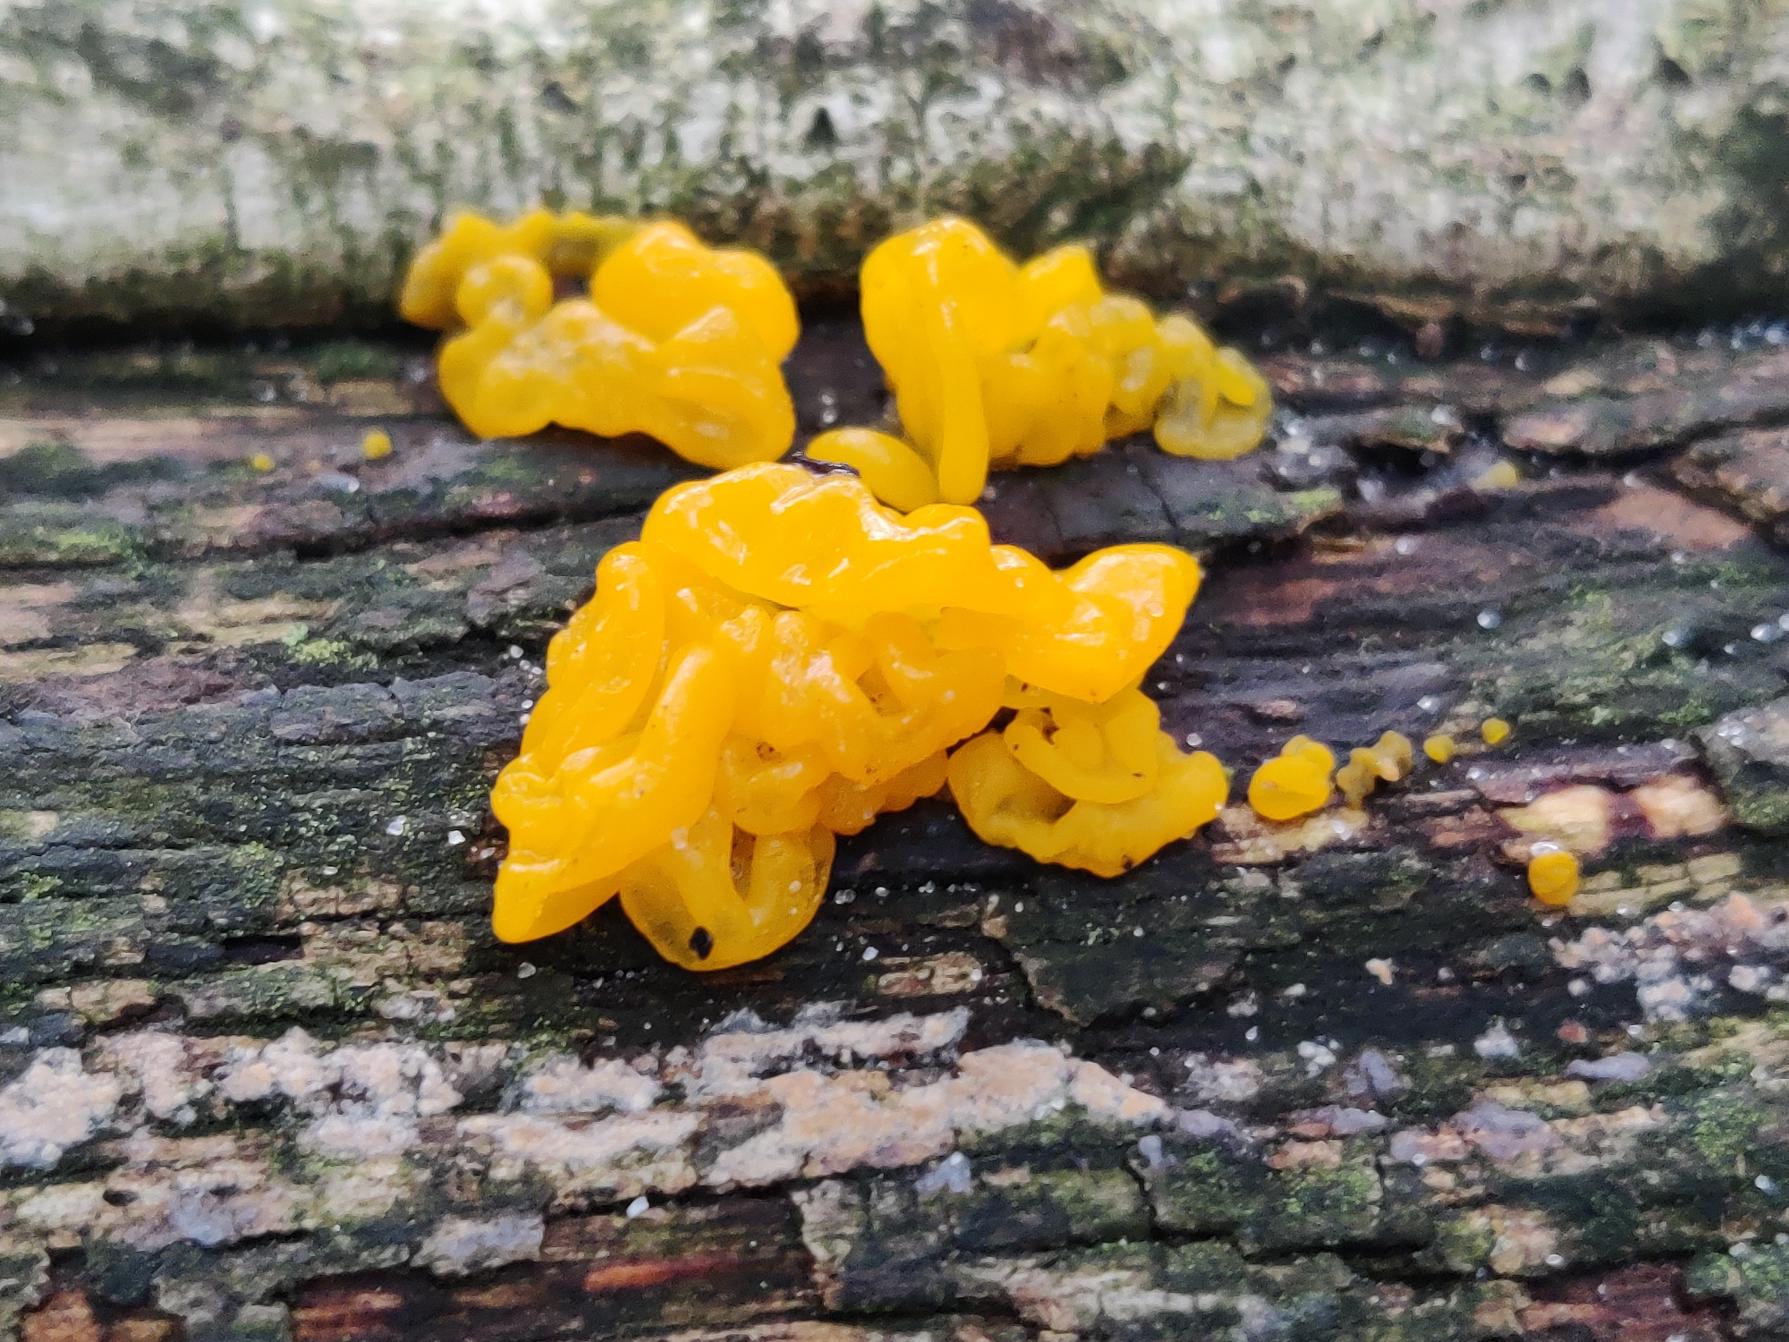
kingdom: Fungi
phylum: Basidiomycota
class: Tremellomycetes
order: Tremellales
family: Tremellaceae
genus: Tremella
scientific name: Tremella mesenterica
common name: Gul bævresvamp
